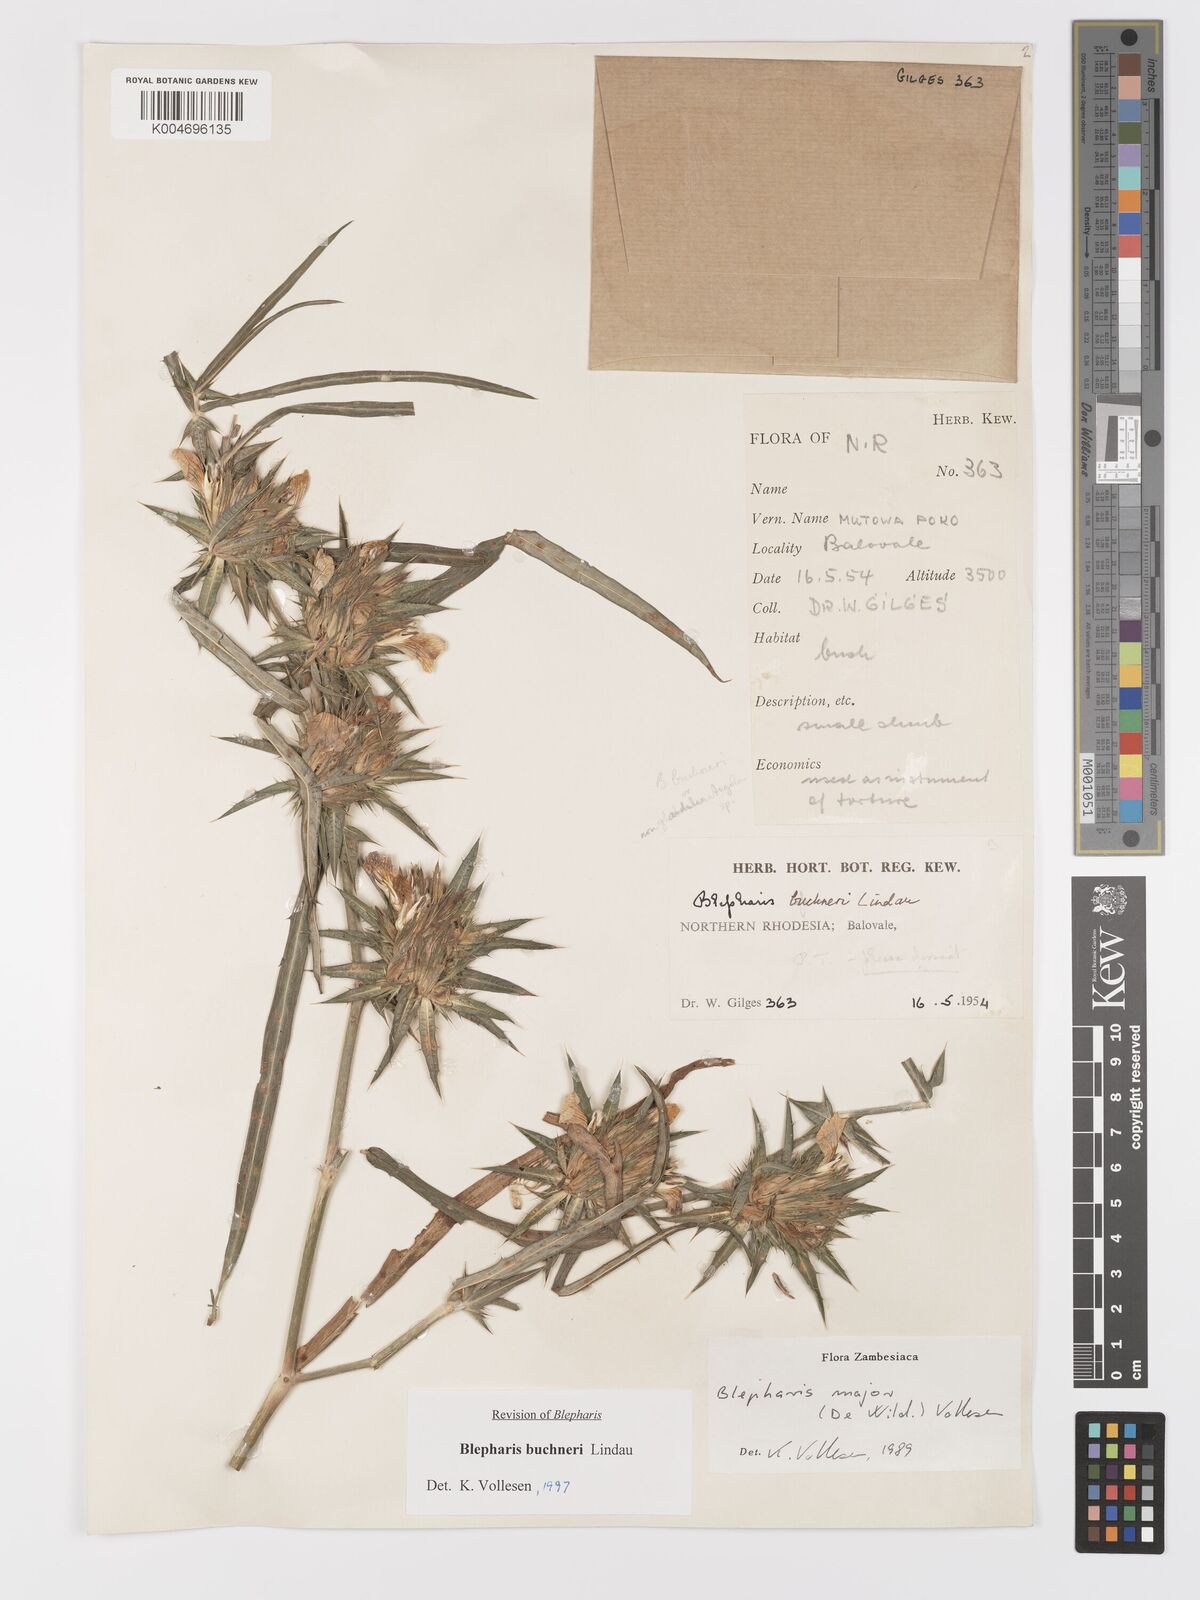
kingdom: Plantae
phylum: Tracheophyta
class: Magnoliopsida
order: Lamiales
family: Acanthaceae
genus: Blepharis
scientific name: Blepharis buchneri
